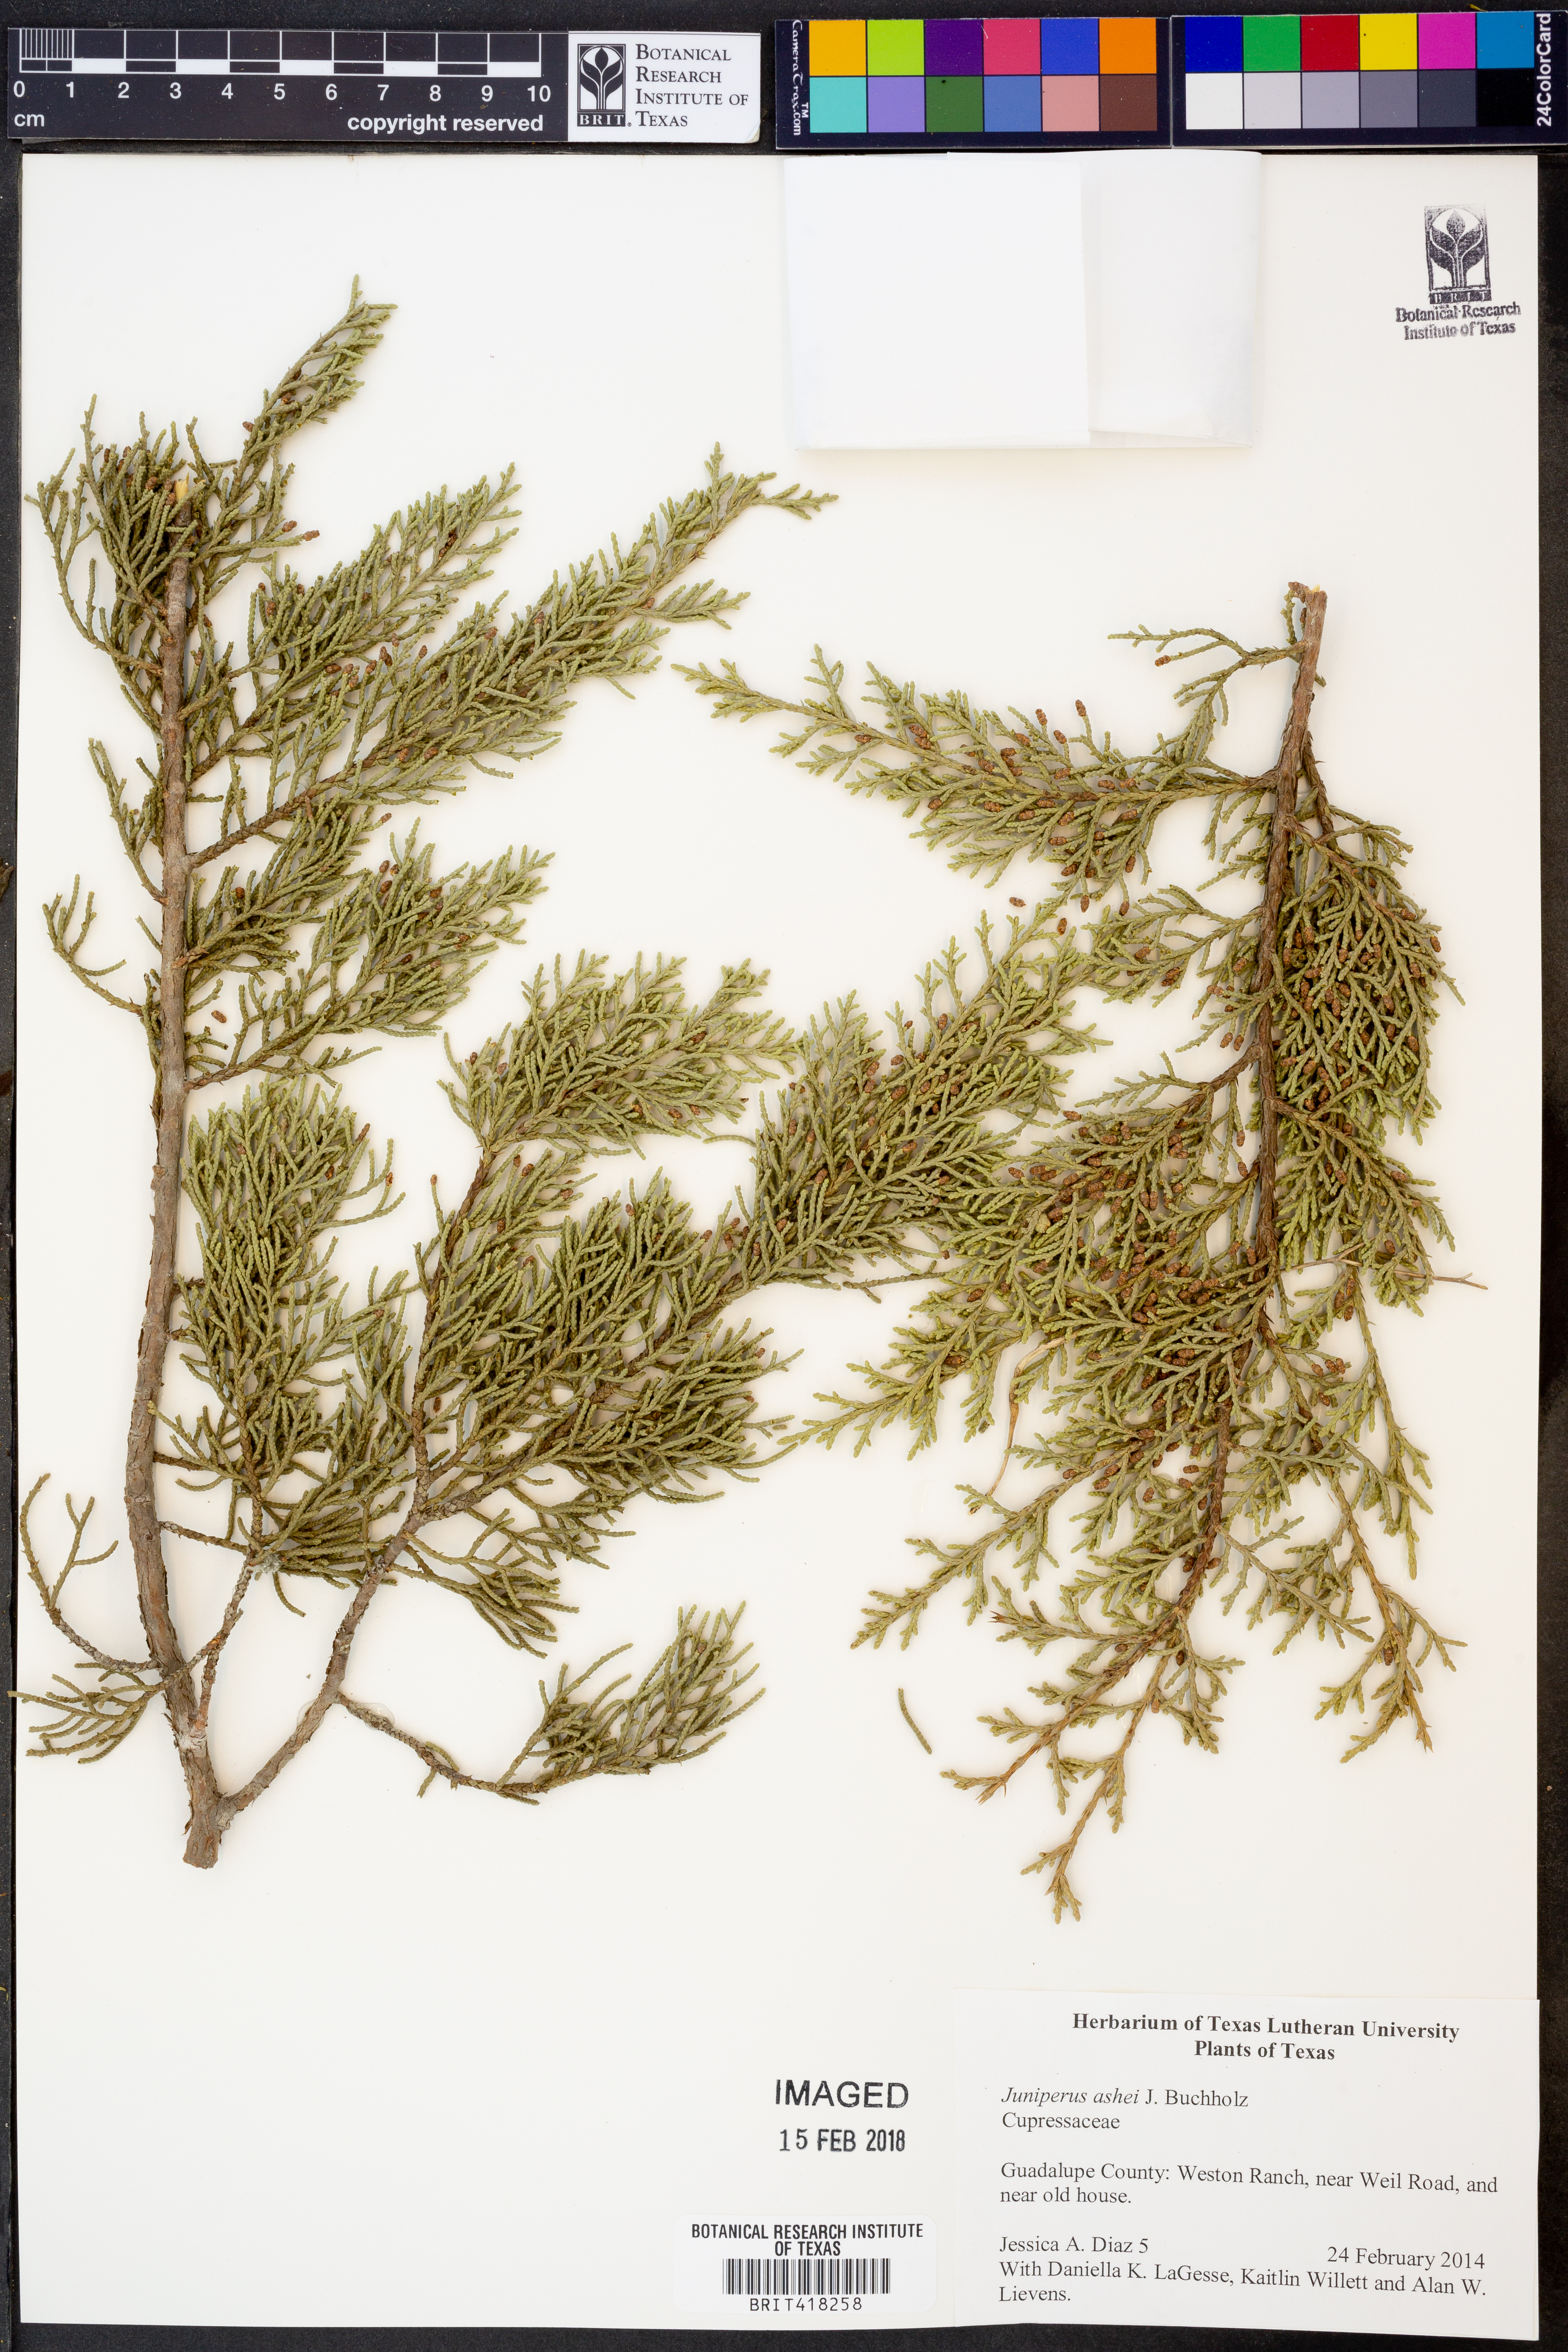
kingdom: Plantae
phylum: Tracheophyta
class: Pinopsida
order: Pinales
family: Cupressaceae
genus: Juniperus
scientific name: Juniperus ashei
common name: Mexican juniper
